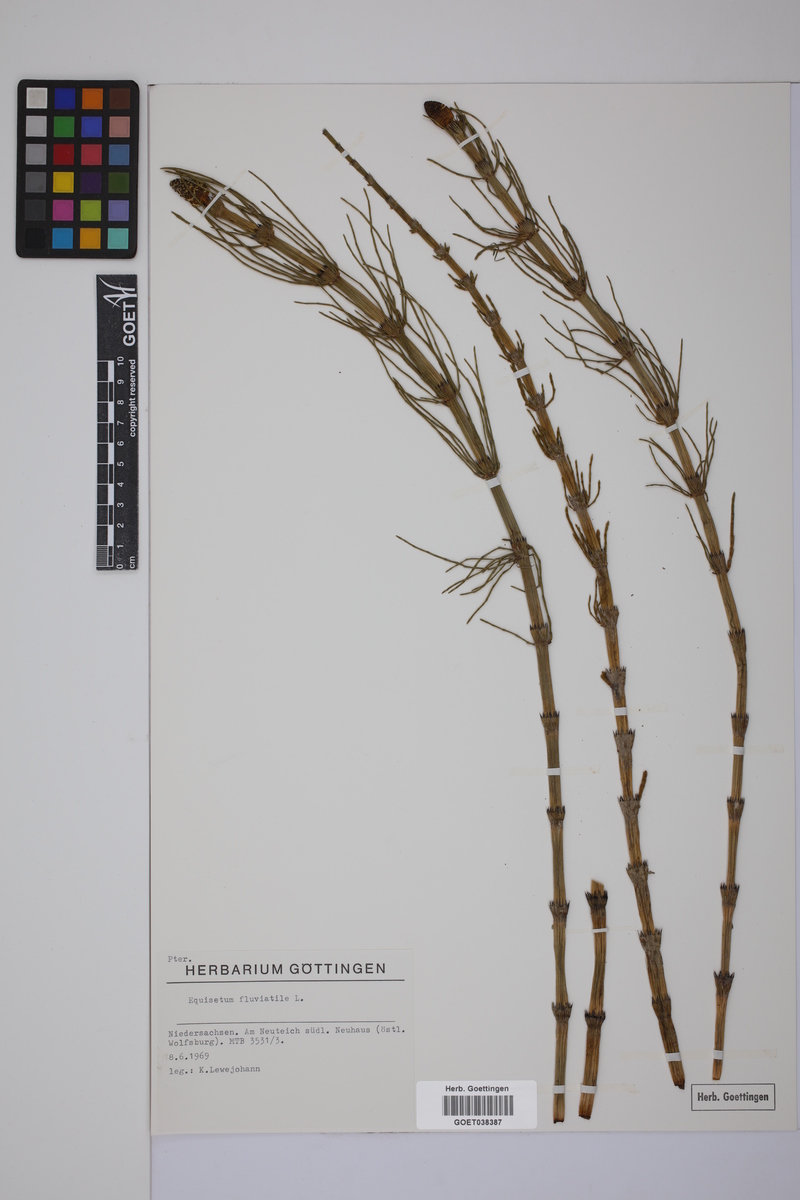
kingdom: Plantae
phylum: Tracheophyta
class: Polypodiopsida
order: Equisetales
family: Equisetaceae
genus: Equisetum
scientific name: Equisetum fluviatile
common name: Water horsetail
